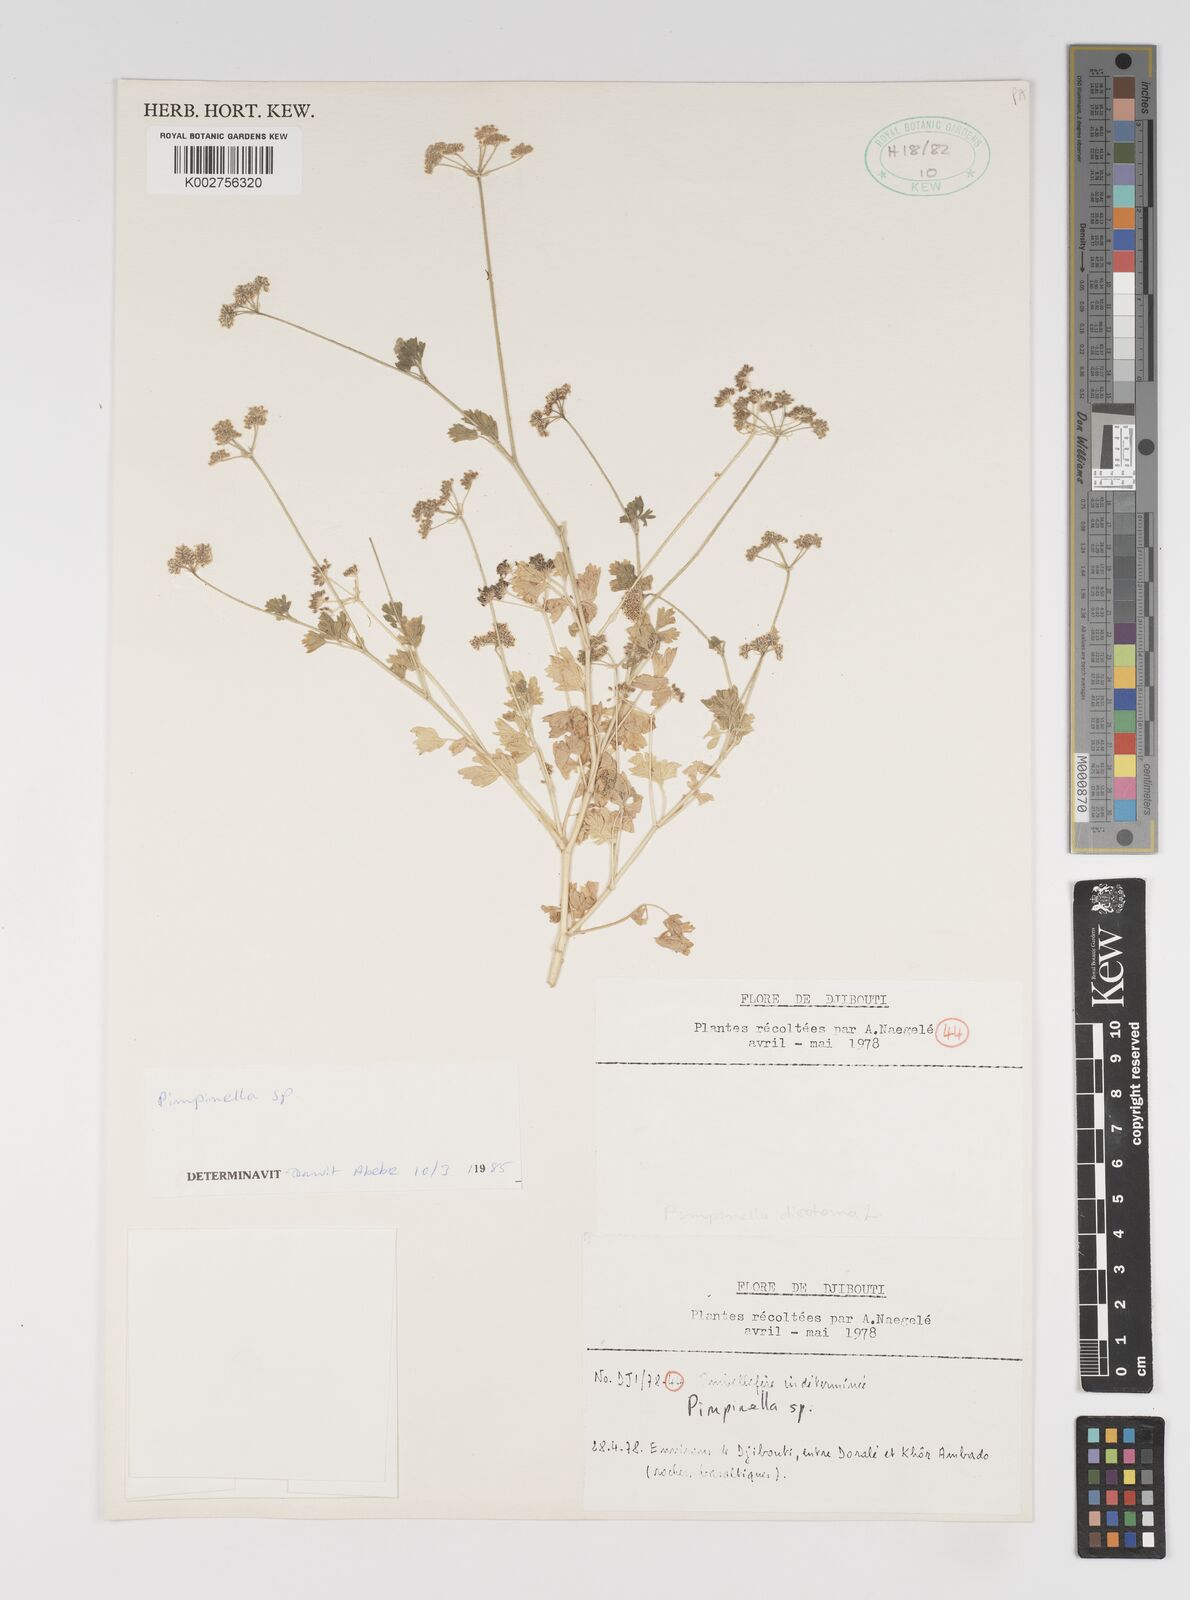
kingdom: Plantae
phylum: Tracheophyta
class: Magnoliopsida
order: Apiales
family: Apiaceae
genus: Pimpinella
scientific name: Pimpinella
